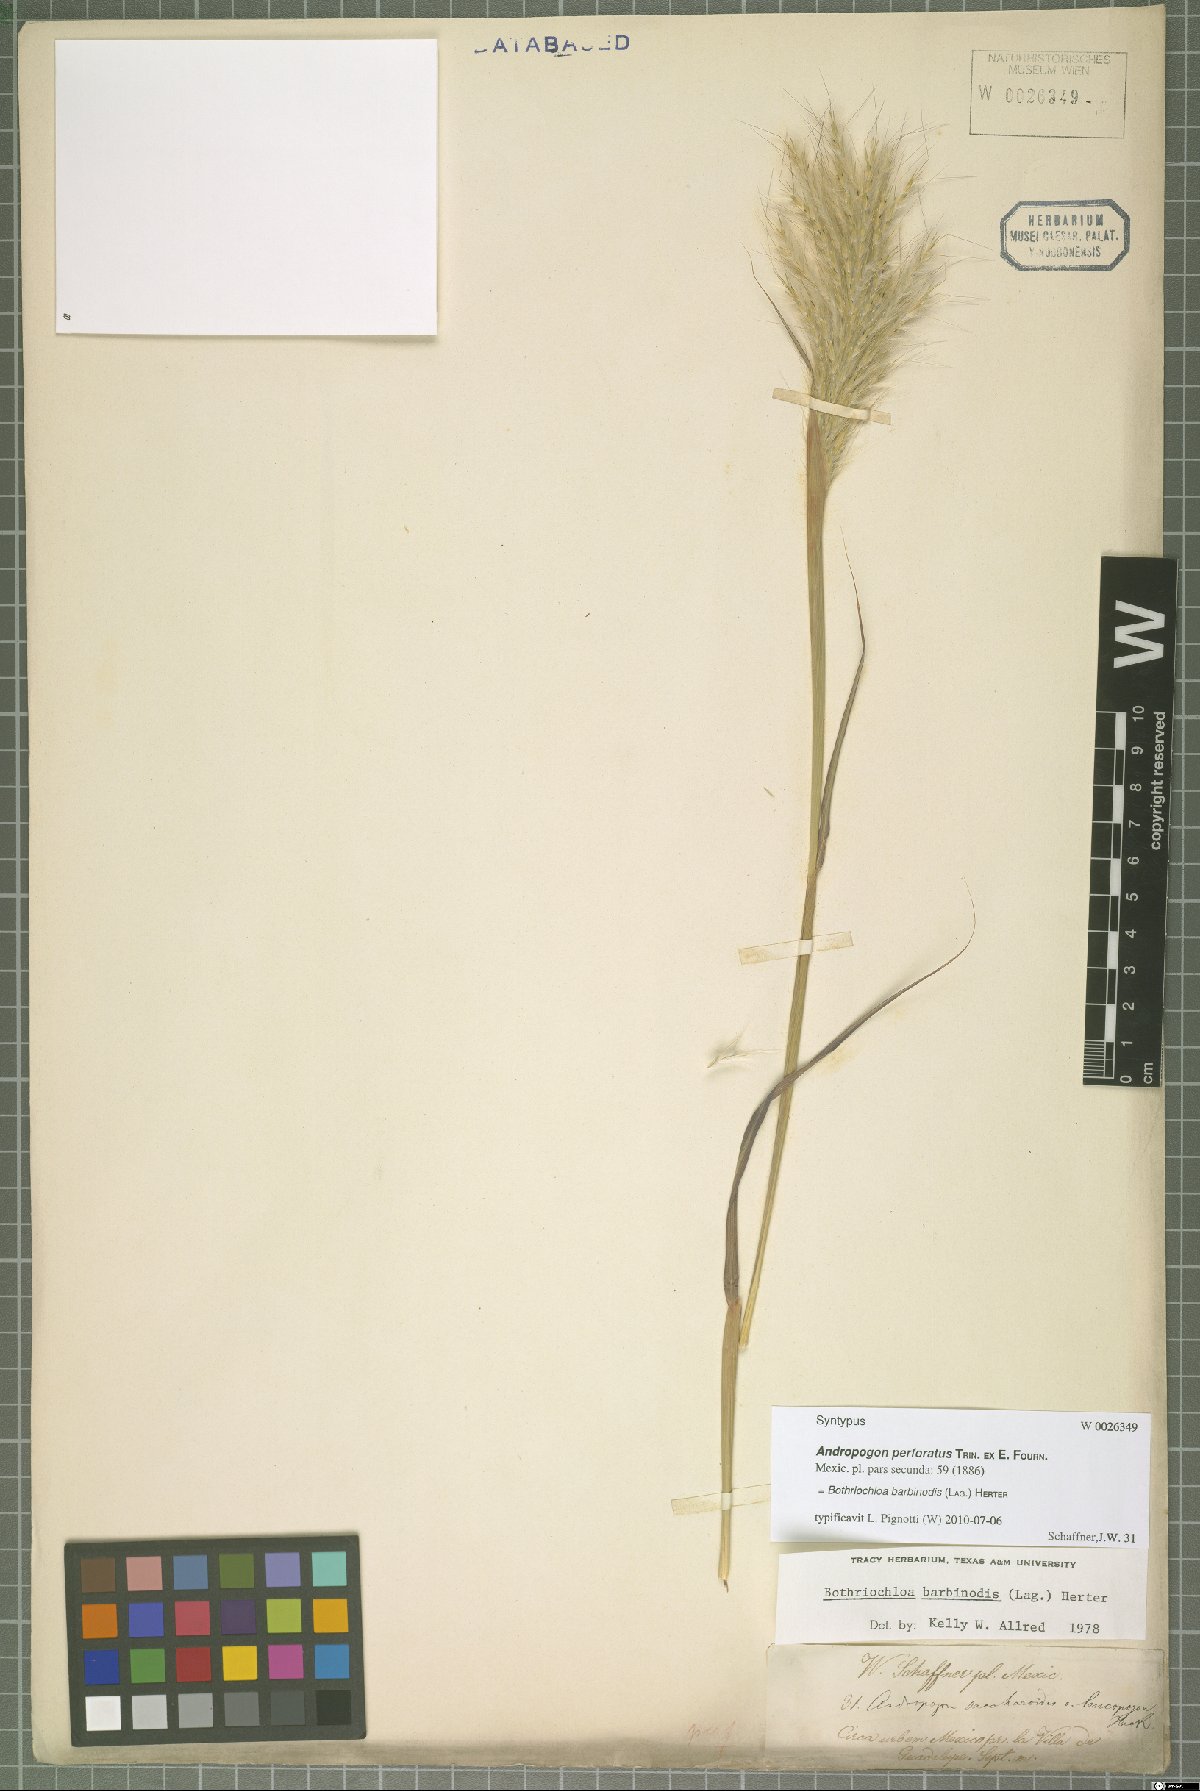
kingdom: Plantae
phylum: Tracheophyta
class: Liliopsida
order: Poales
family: Poaceae
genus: Bothriochloa
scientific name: Bothriochloa barbinodis
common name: Cane bluestem
